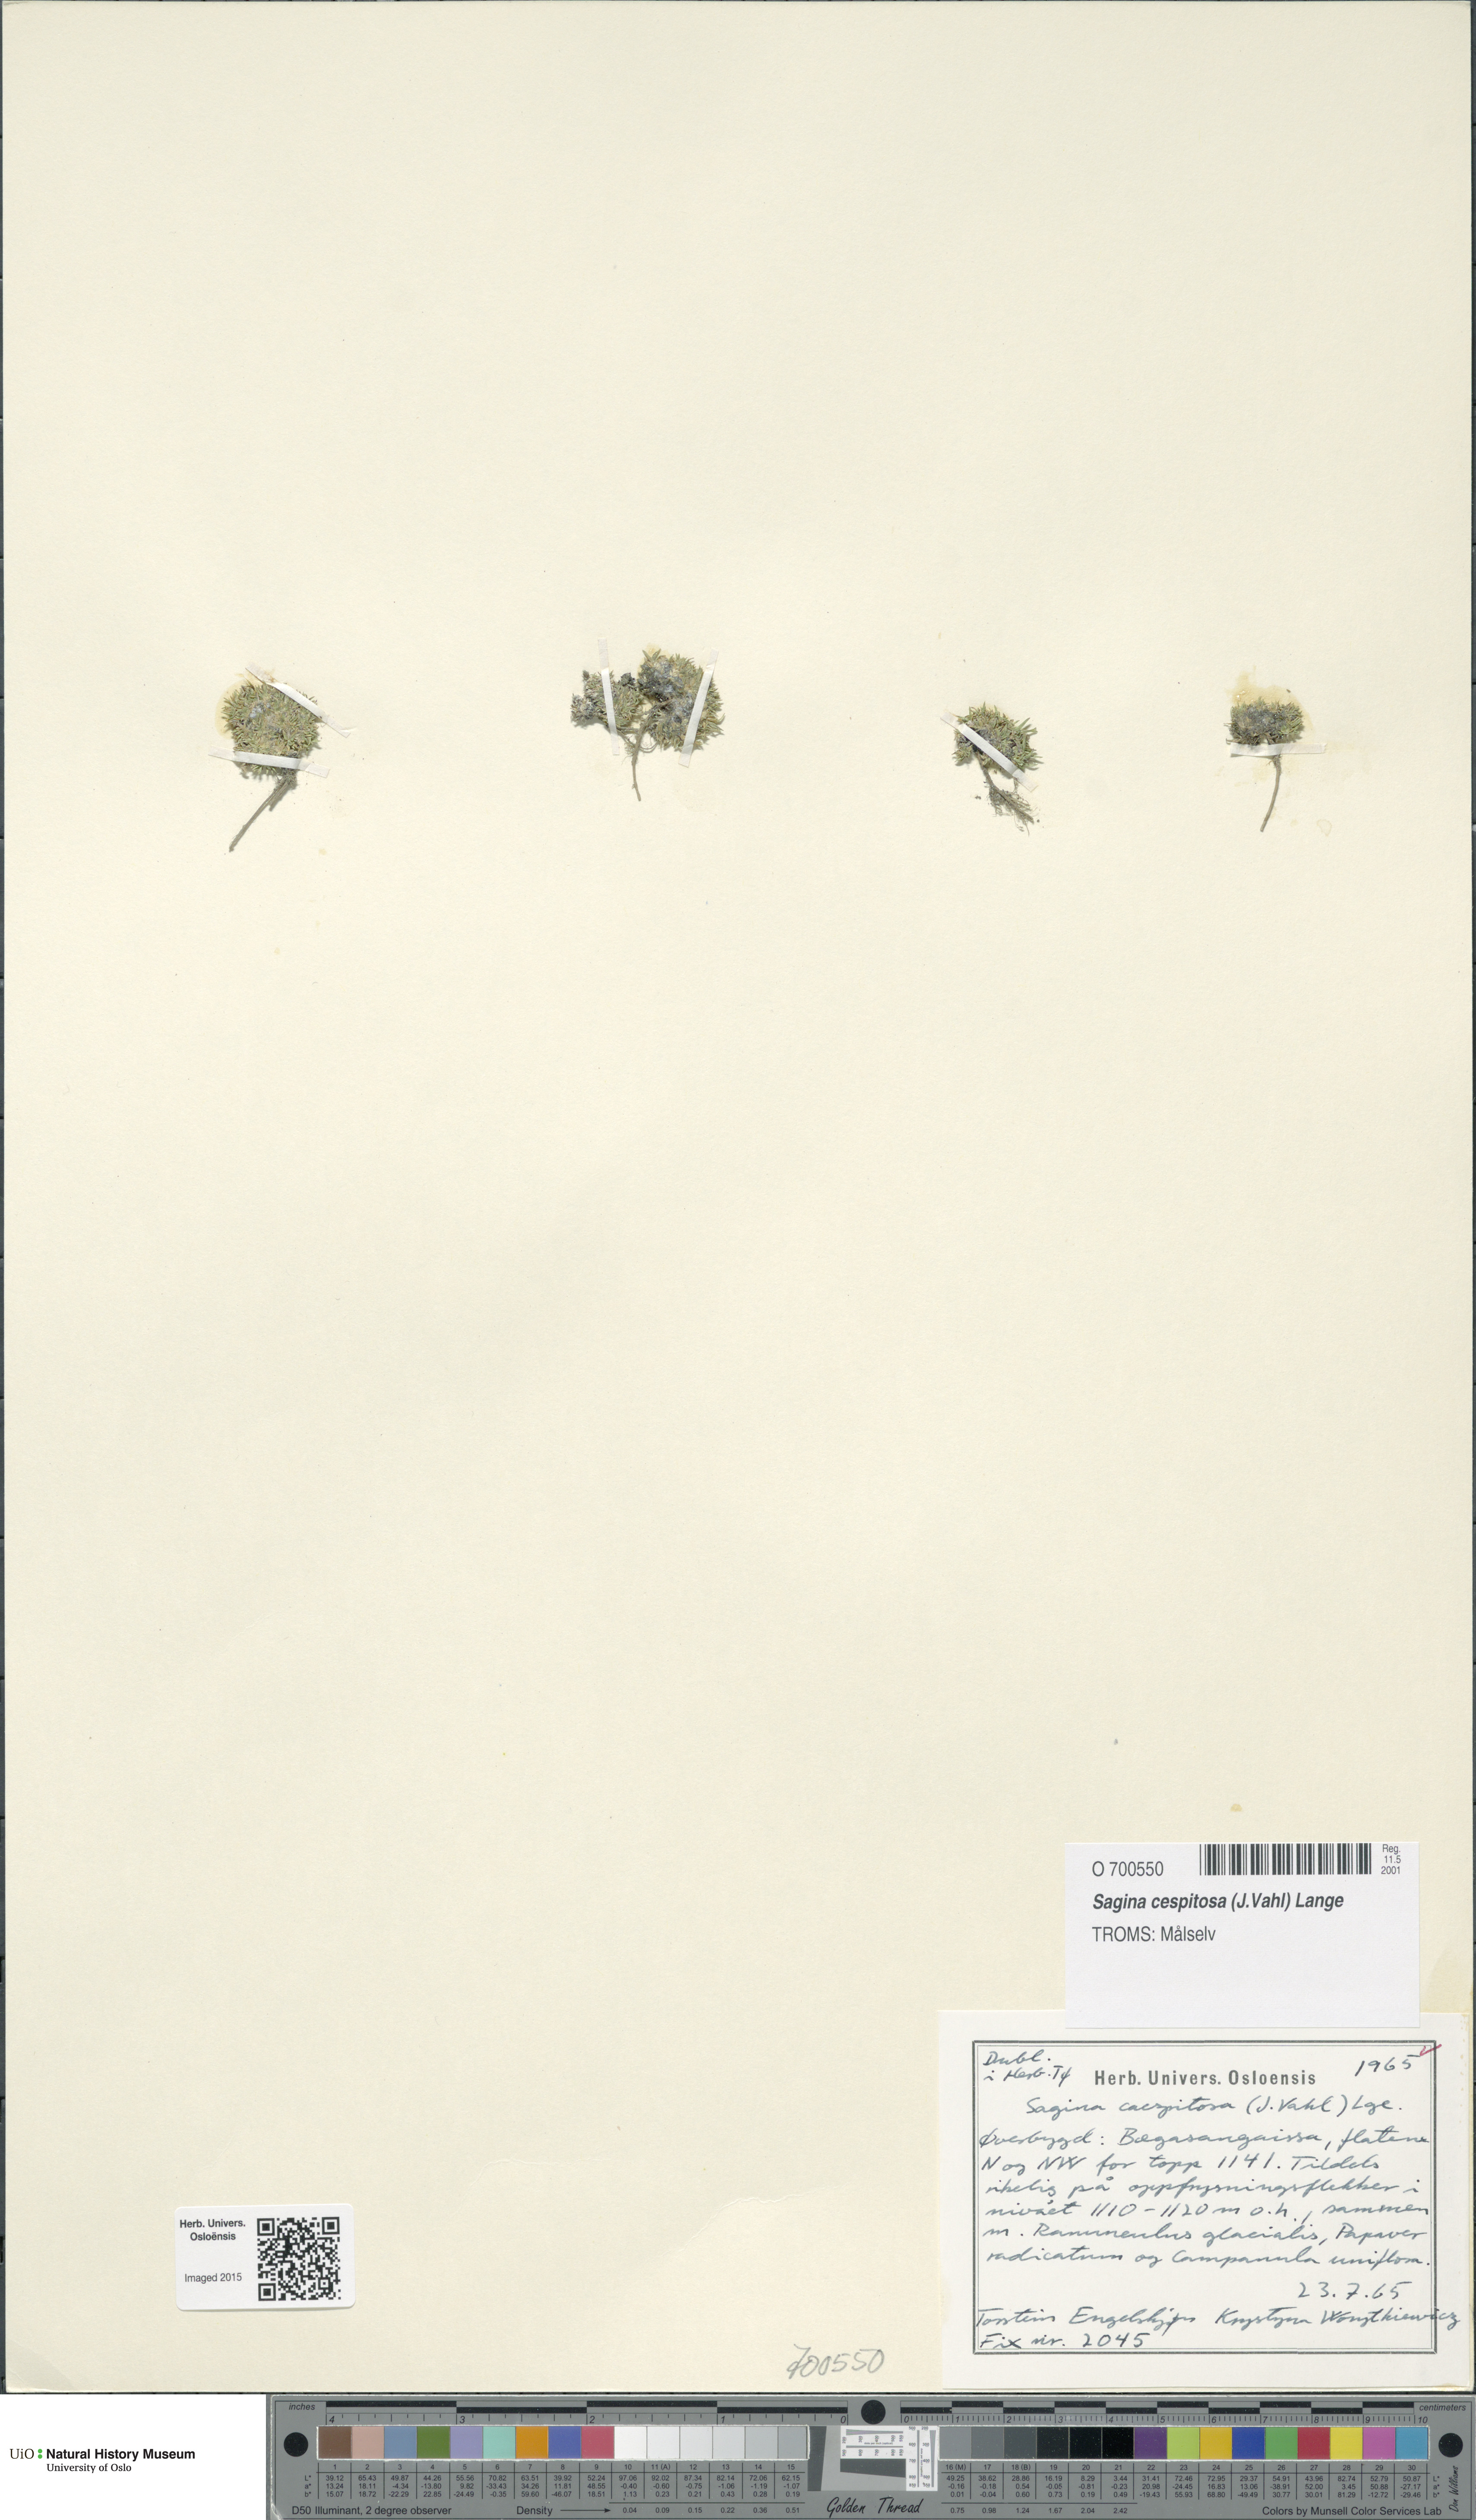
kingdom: Plantae
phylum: Tracheophyta
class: Magnoliopsida
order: Caryophyllales
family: Caryophyllaceae
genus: Sagina
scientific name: Sagina caespitosa
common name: Tufted pearlwort
